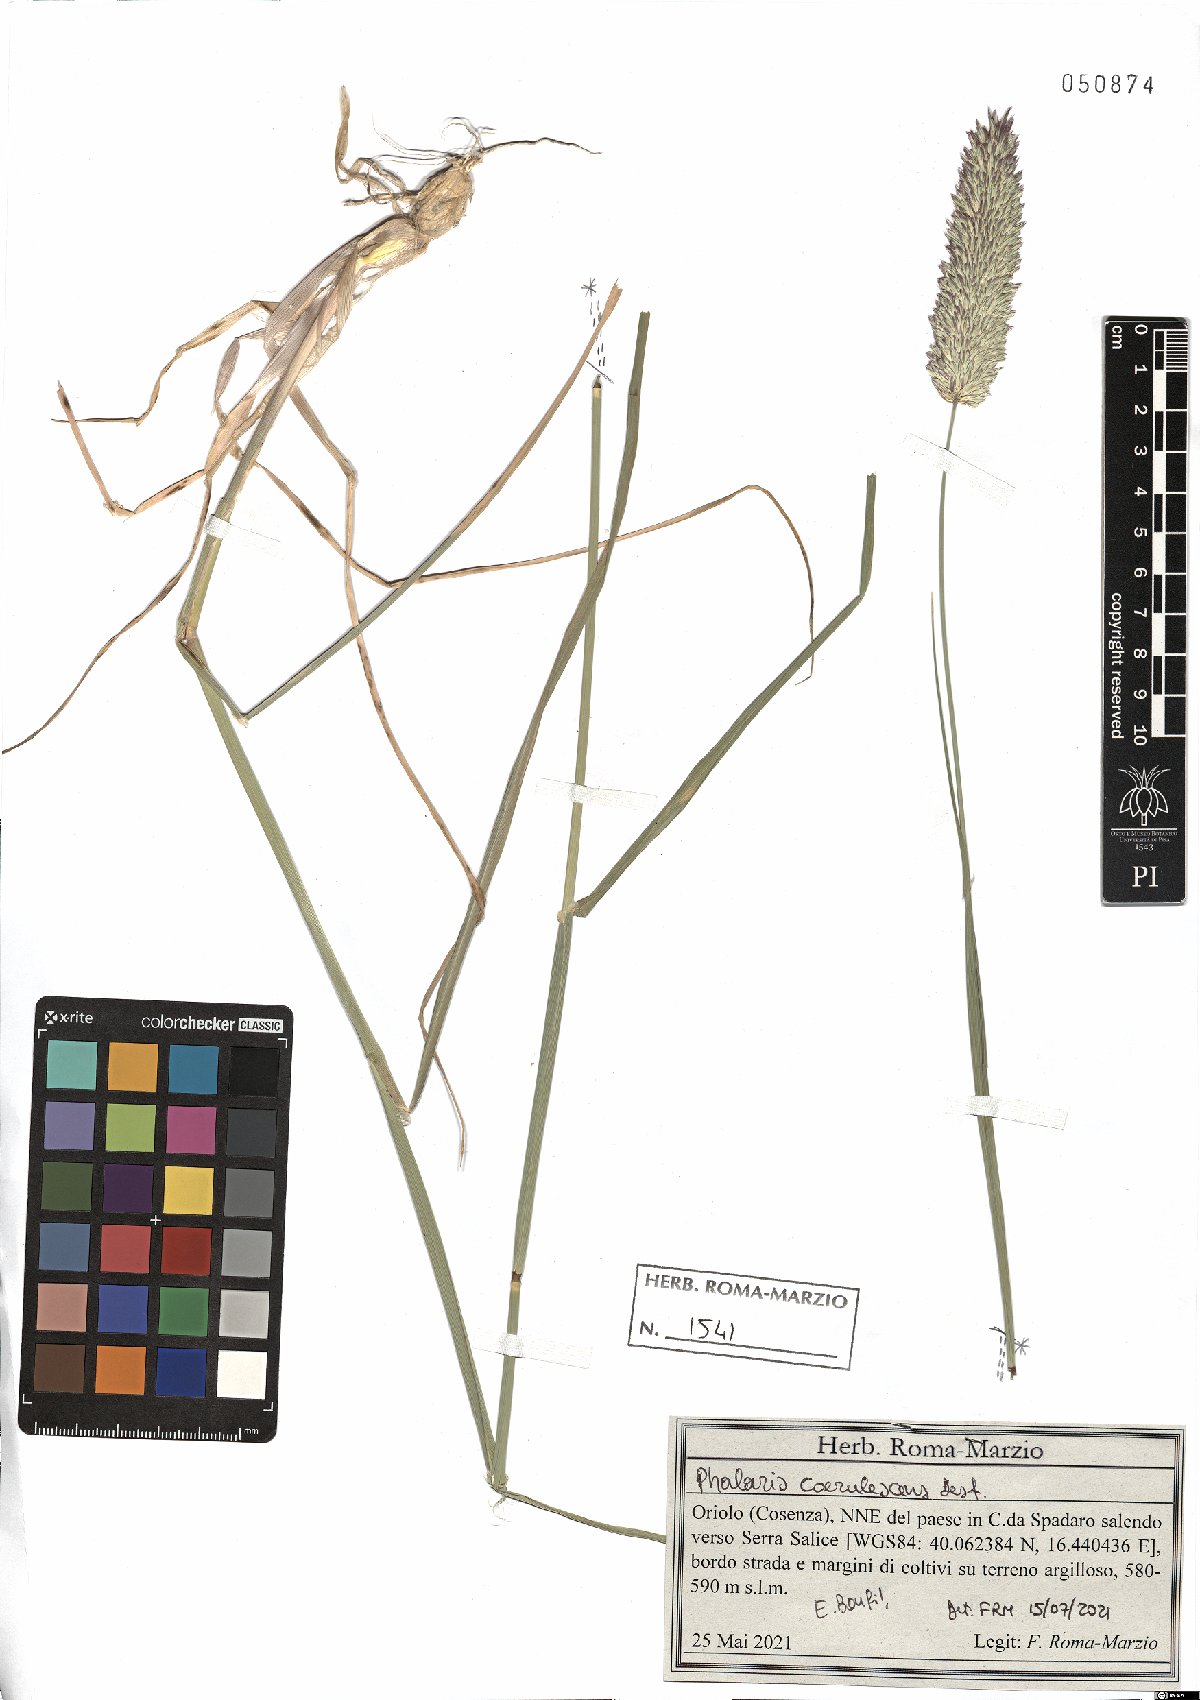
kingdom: Plantae
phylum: Tracheophyta
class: Liliopsida
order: Poales
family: Poaceae
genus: Phalaris
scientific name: Phalaris coerulescens
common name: Sunolgrass
